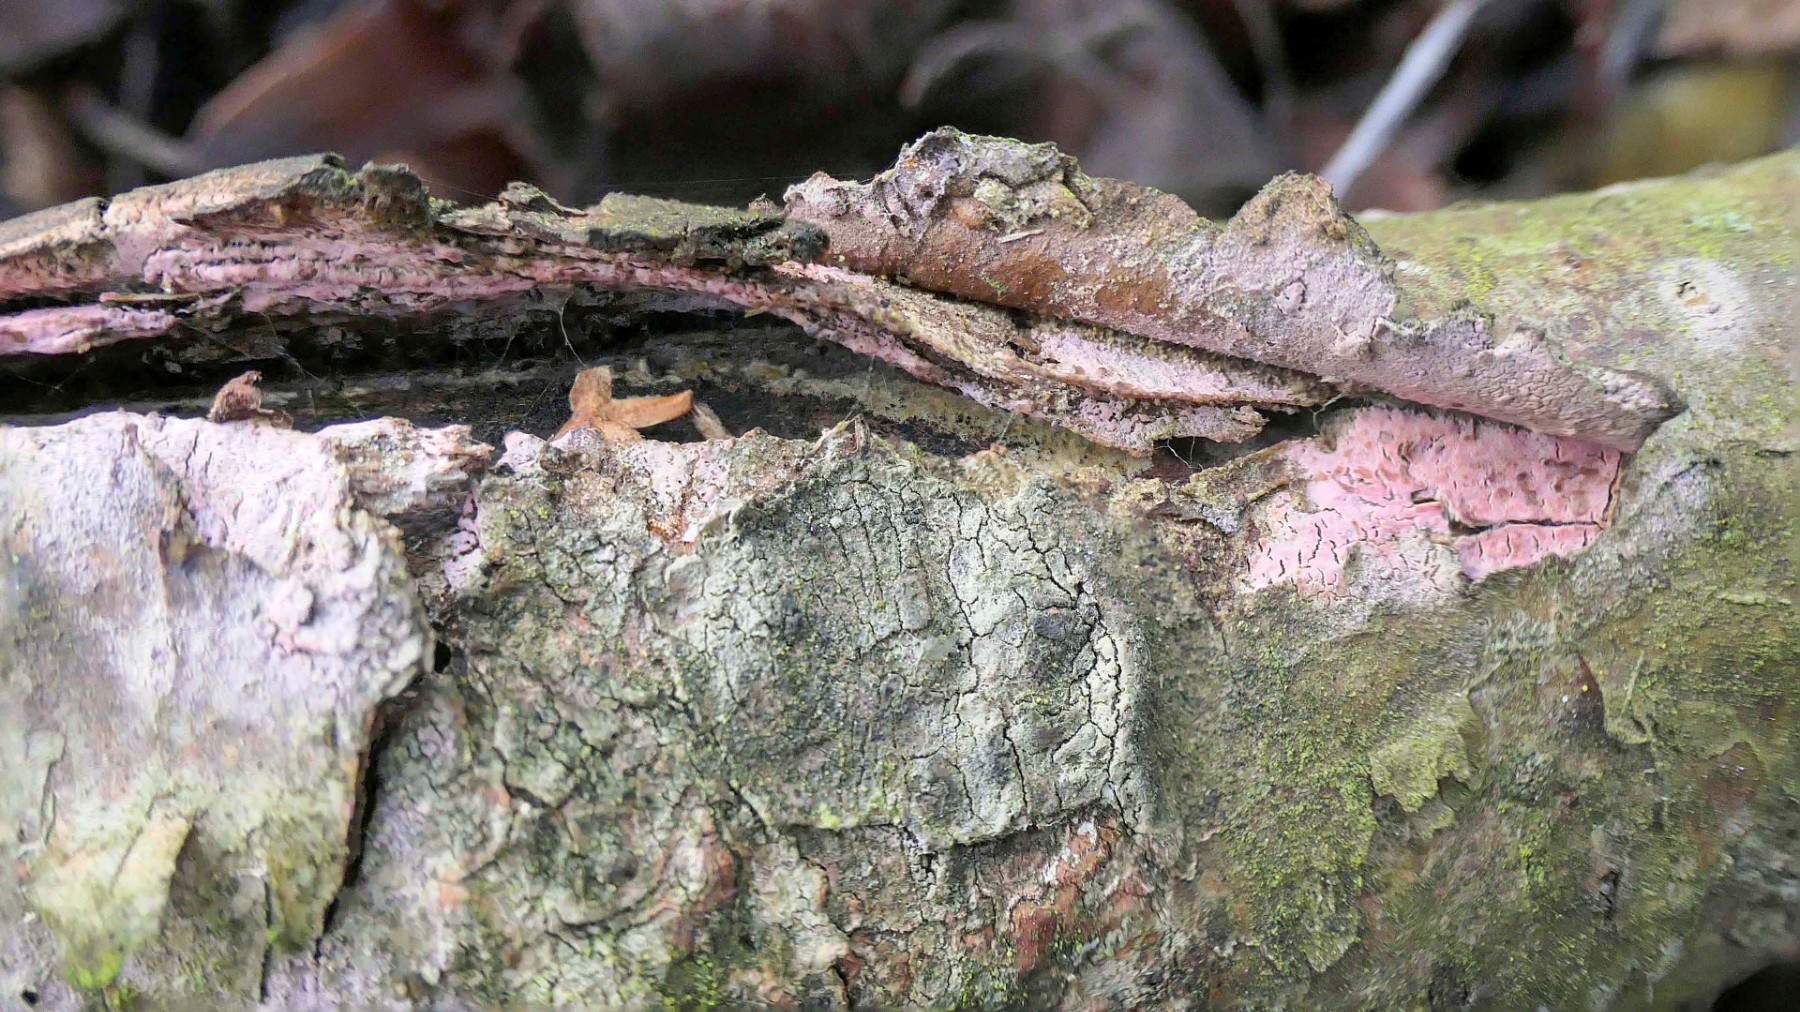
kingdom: Fungi
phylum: Basidiomycota
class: Agaricomycetes
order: Cantharellales
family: Tulasnellaceae
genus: Tulasnella
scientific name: Tulasnella violea
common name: violet ballonhinde
